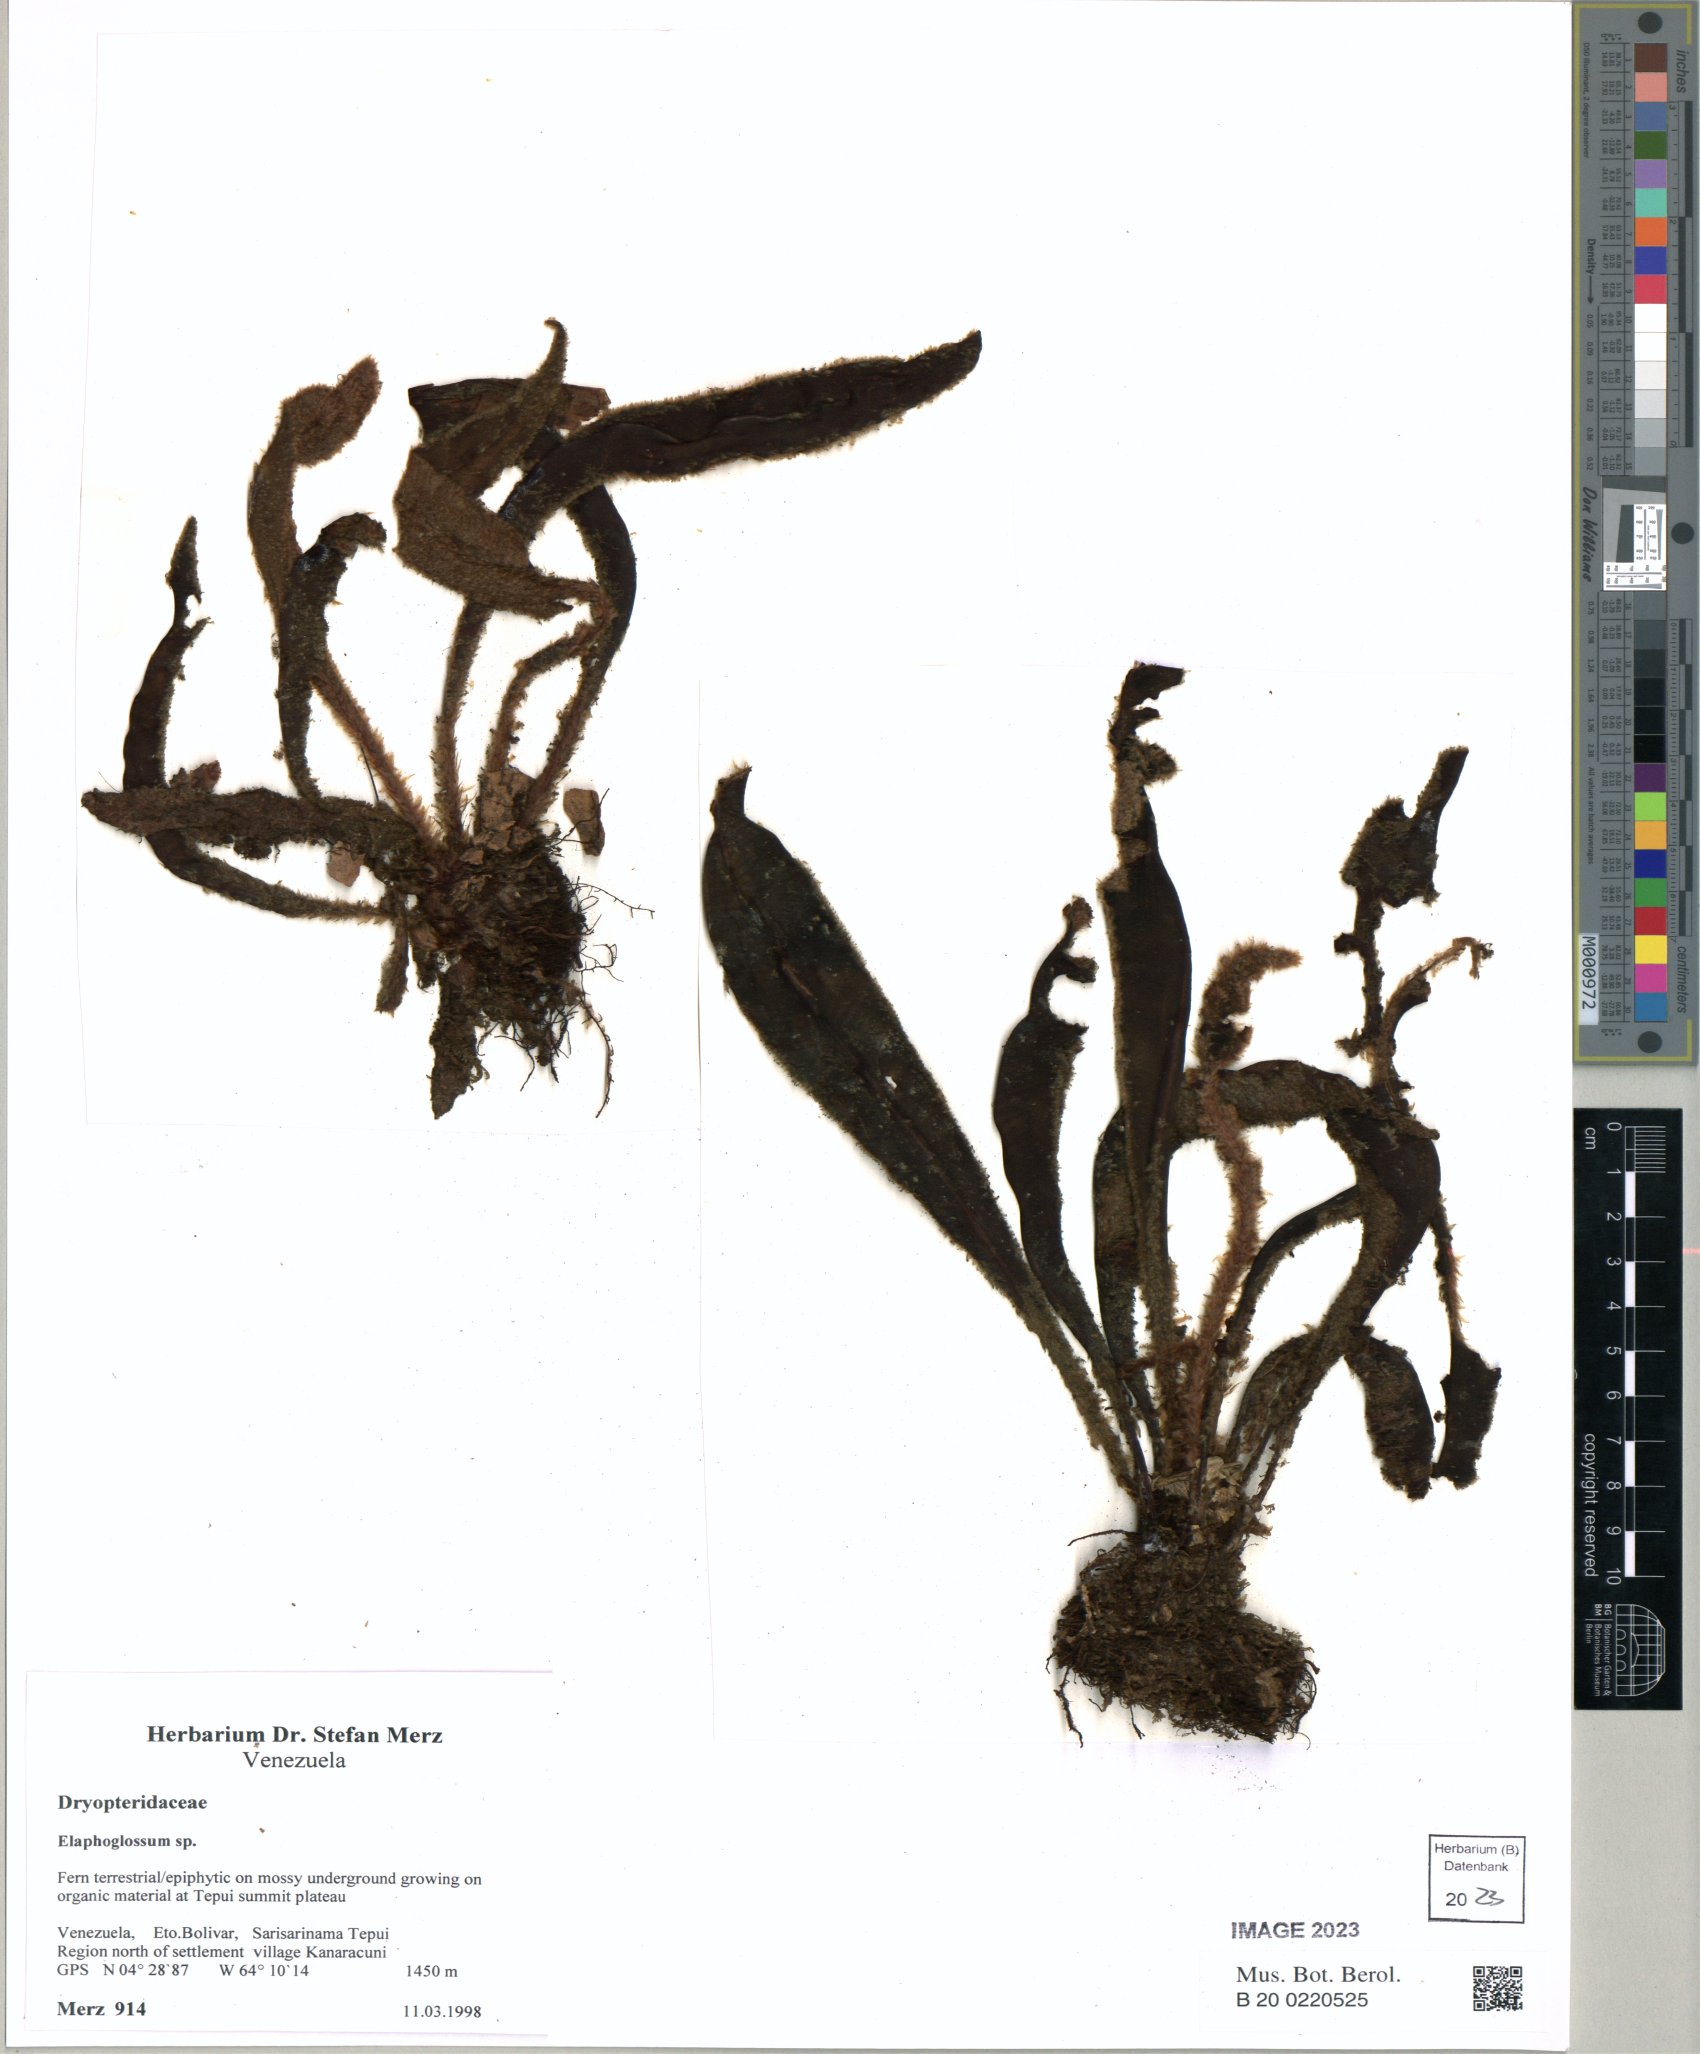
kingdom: Plantae
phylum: Tracheophyta
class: Polypodiopsida
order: Polypodiales
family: Dryopteridaceae
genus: Elaphoglossum
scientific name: Elaphoglossum
